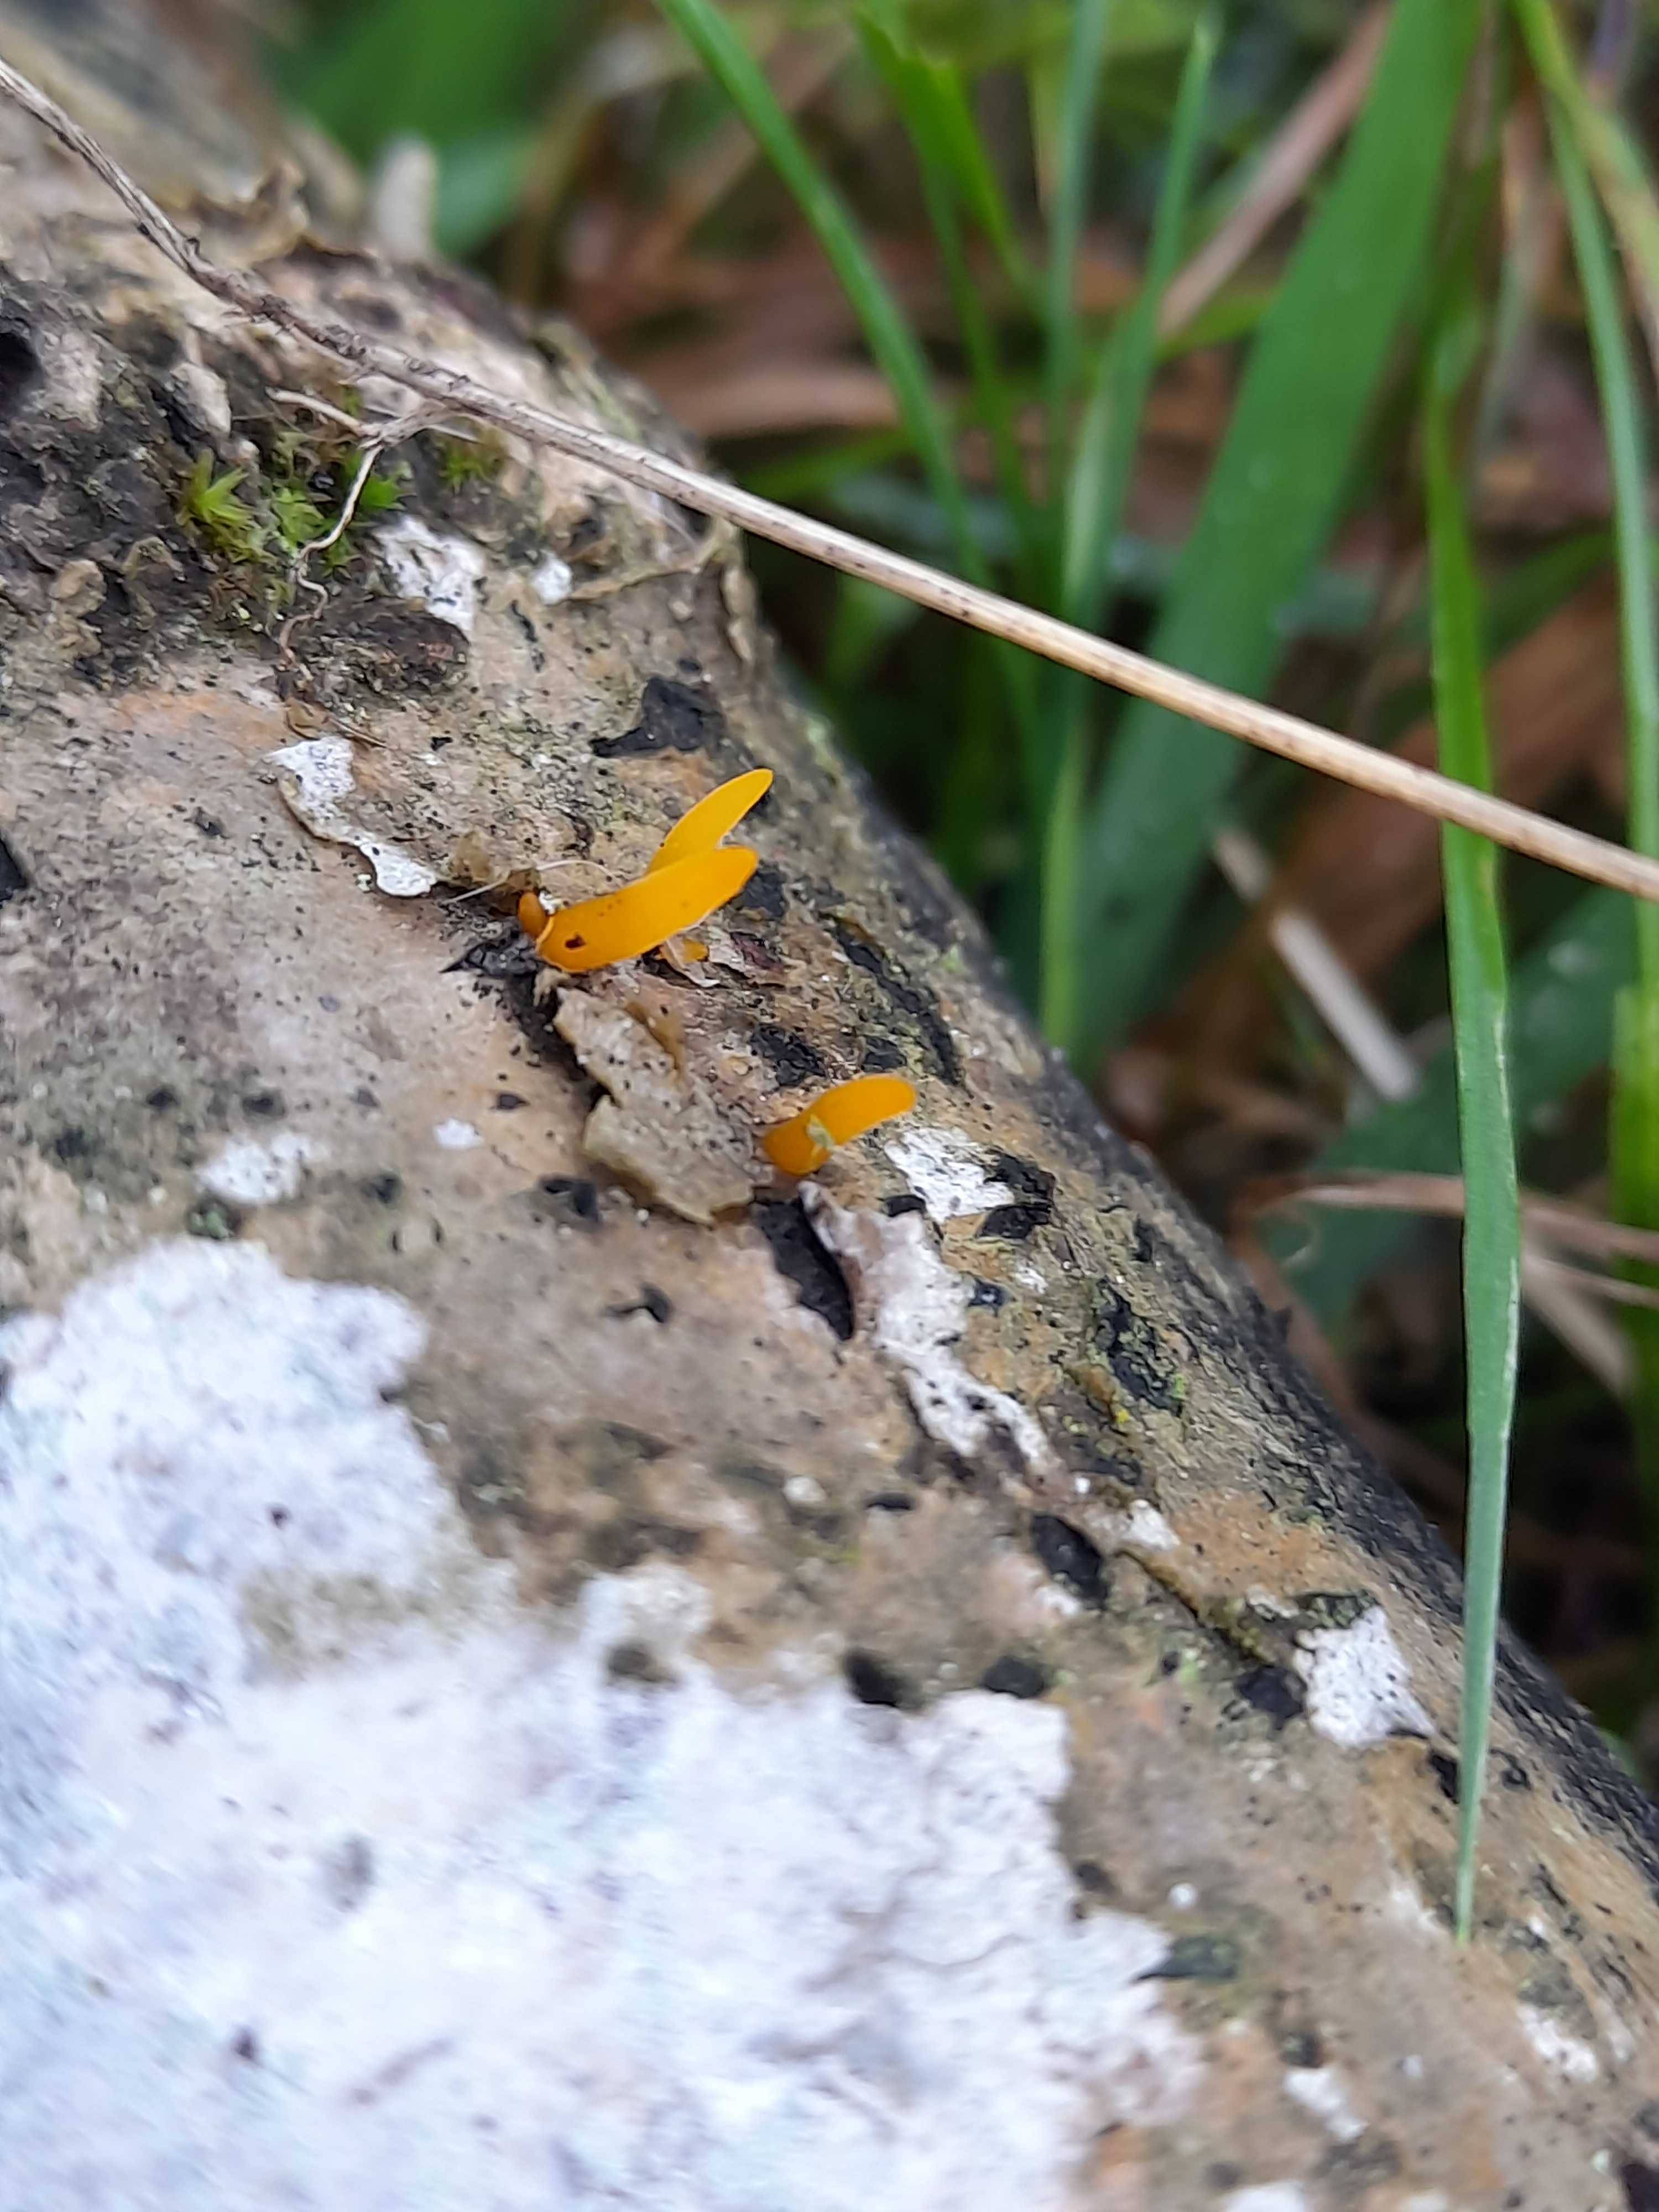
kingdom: Fungi
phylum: Basidiomycota
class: Dacrymycetes
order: Dacrymycetales
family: Dacrymycetaceae
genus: Calocera
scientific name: Calocera cornea
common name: liden guldgaffel
